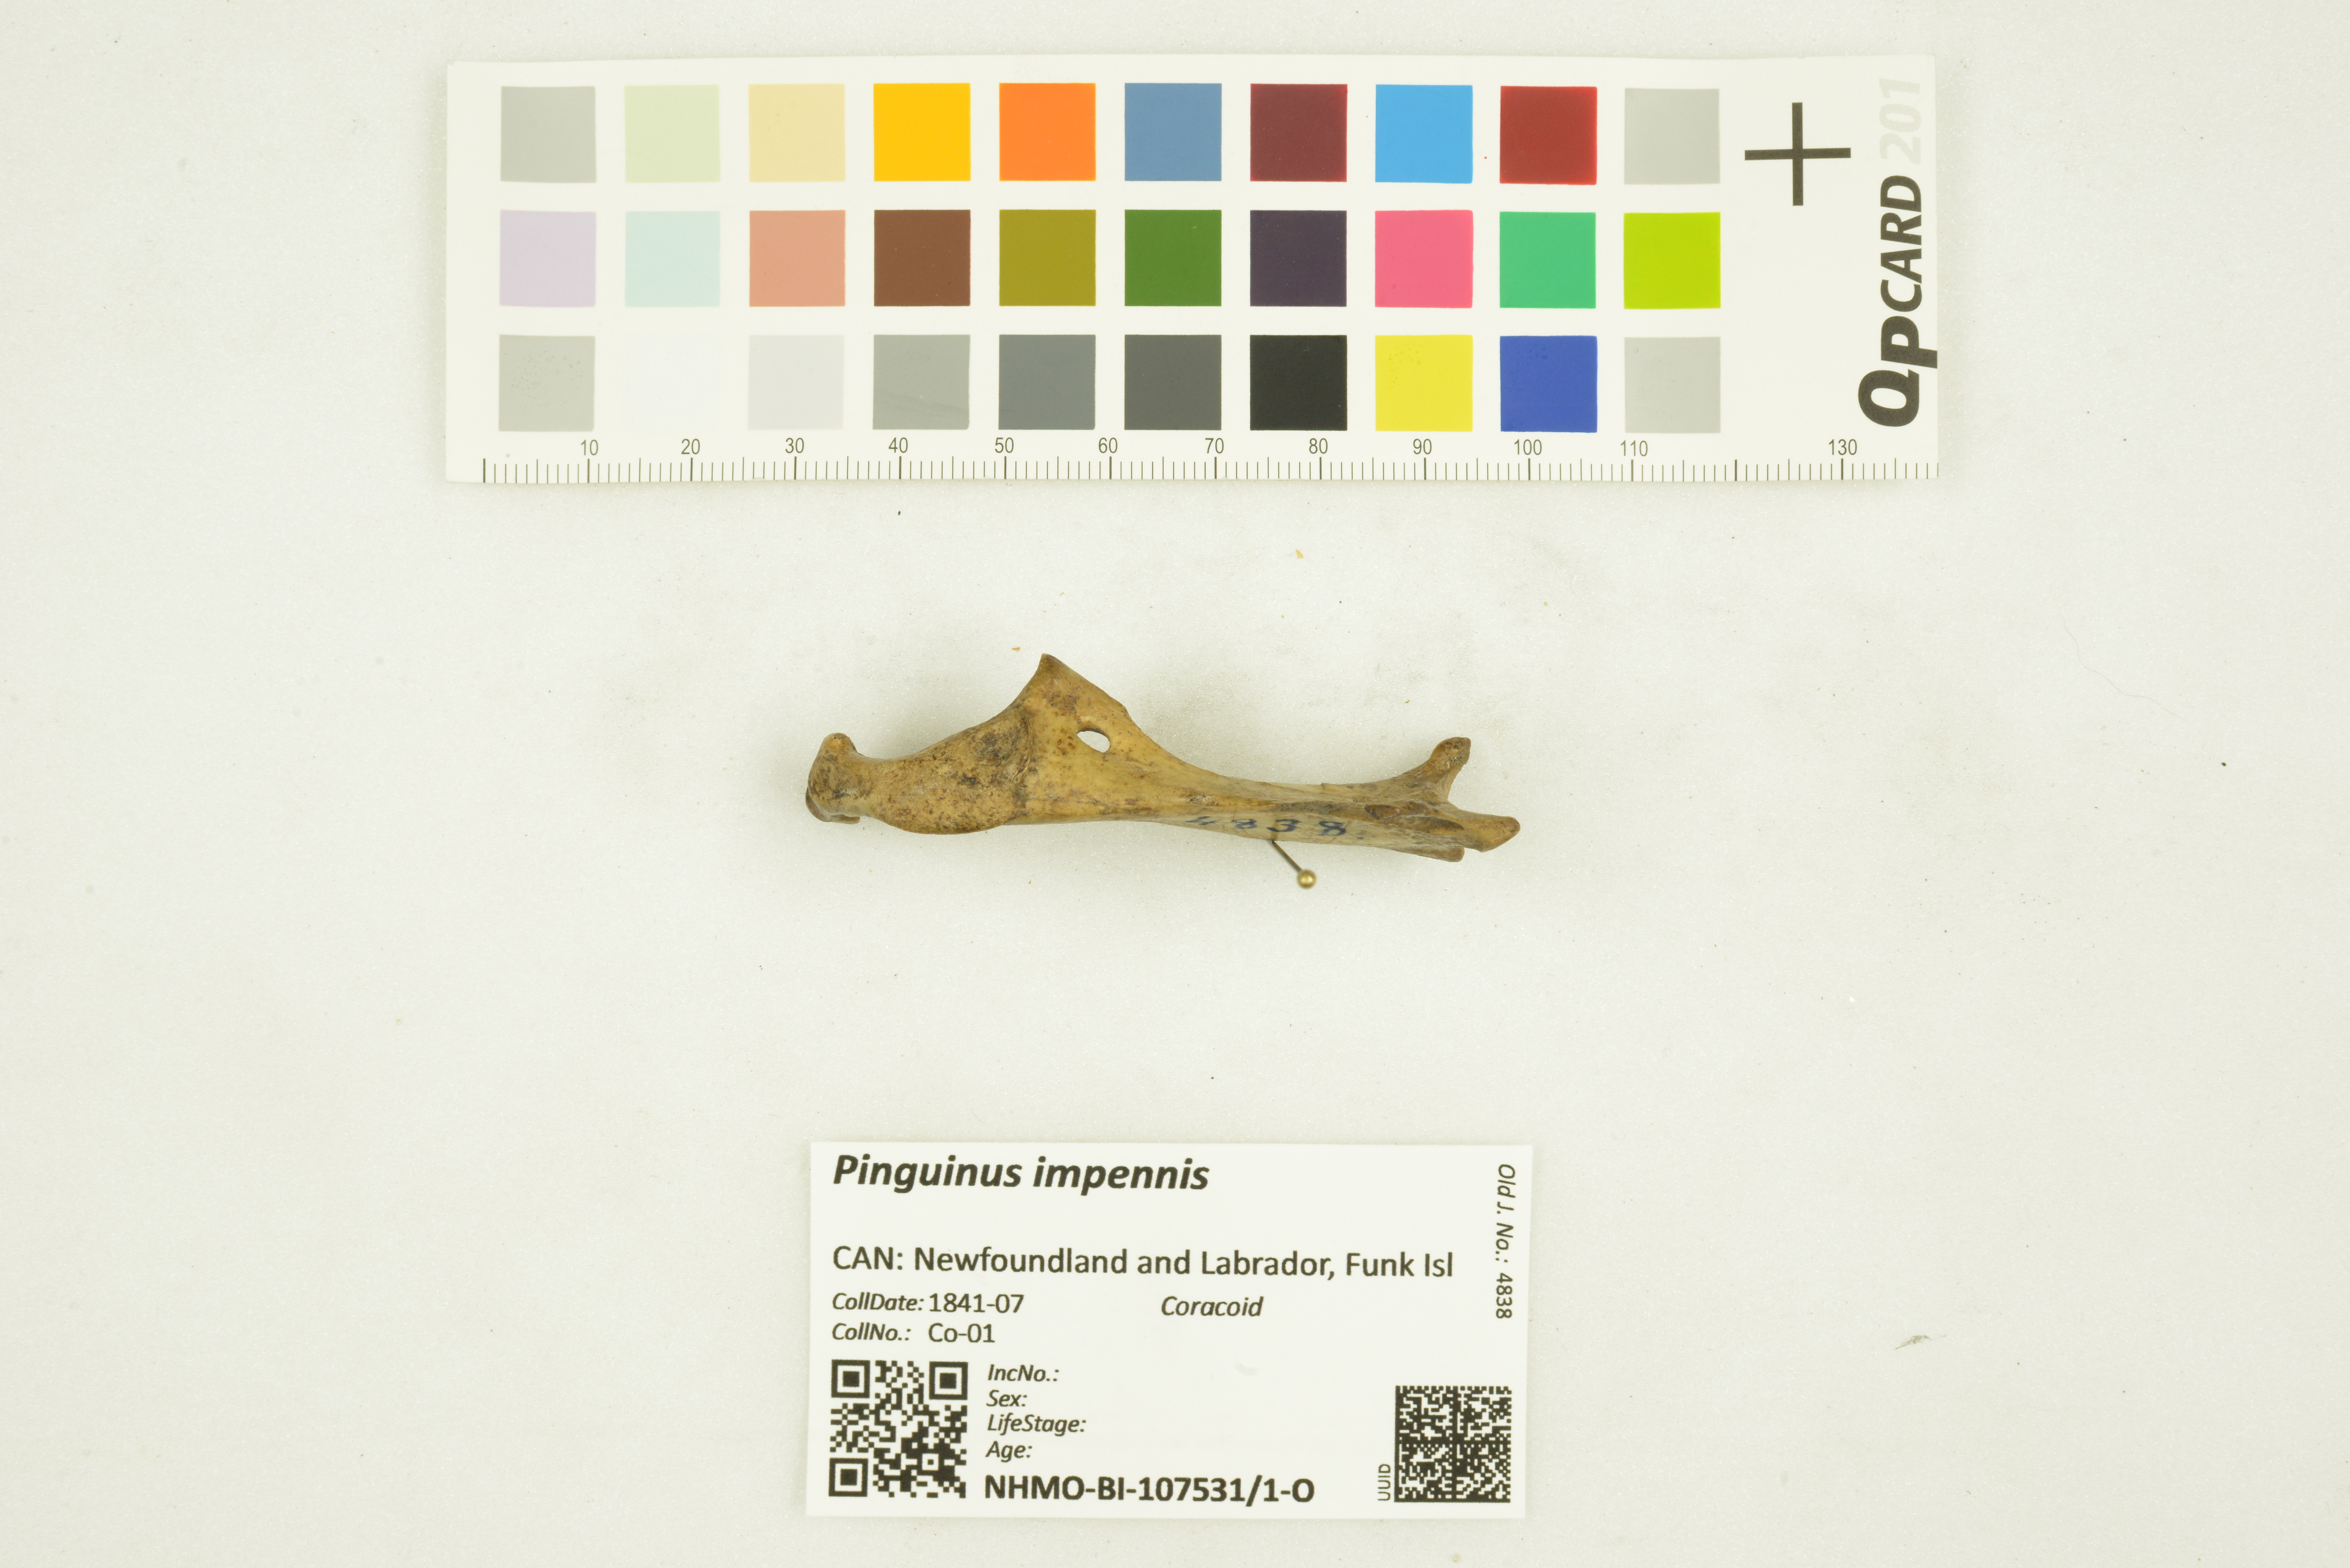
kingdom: Animalia
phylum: Chordata
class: Aves
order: Charadriiformes
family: Alcidae
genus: Pinguinus
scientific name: Pinguinus impennis
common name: Great auk
